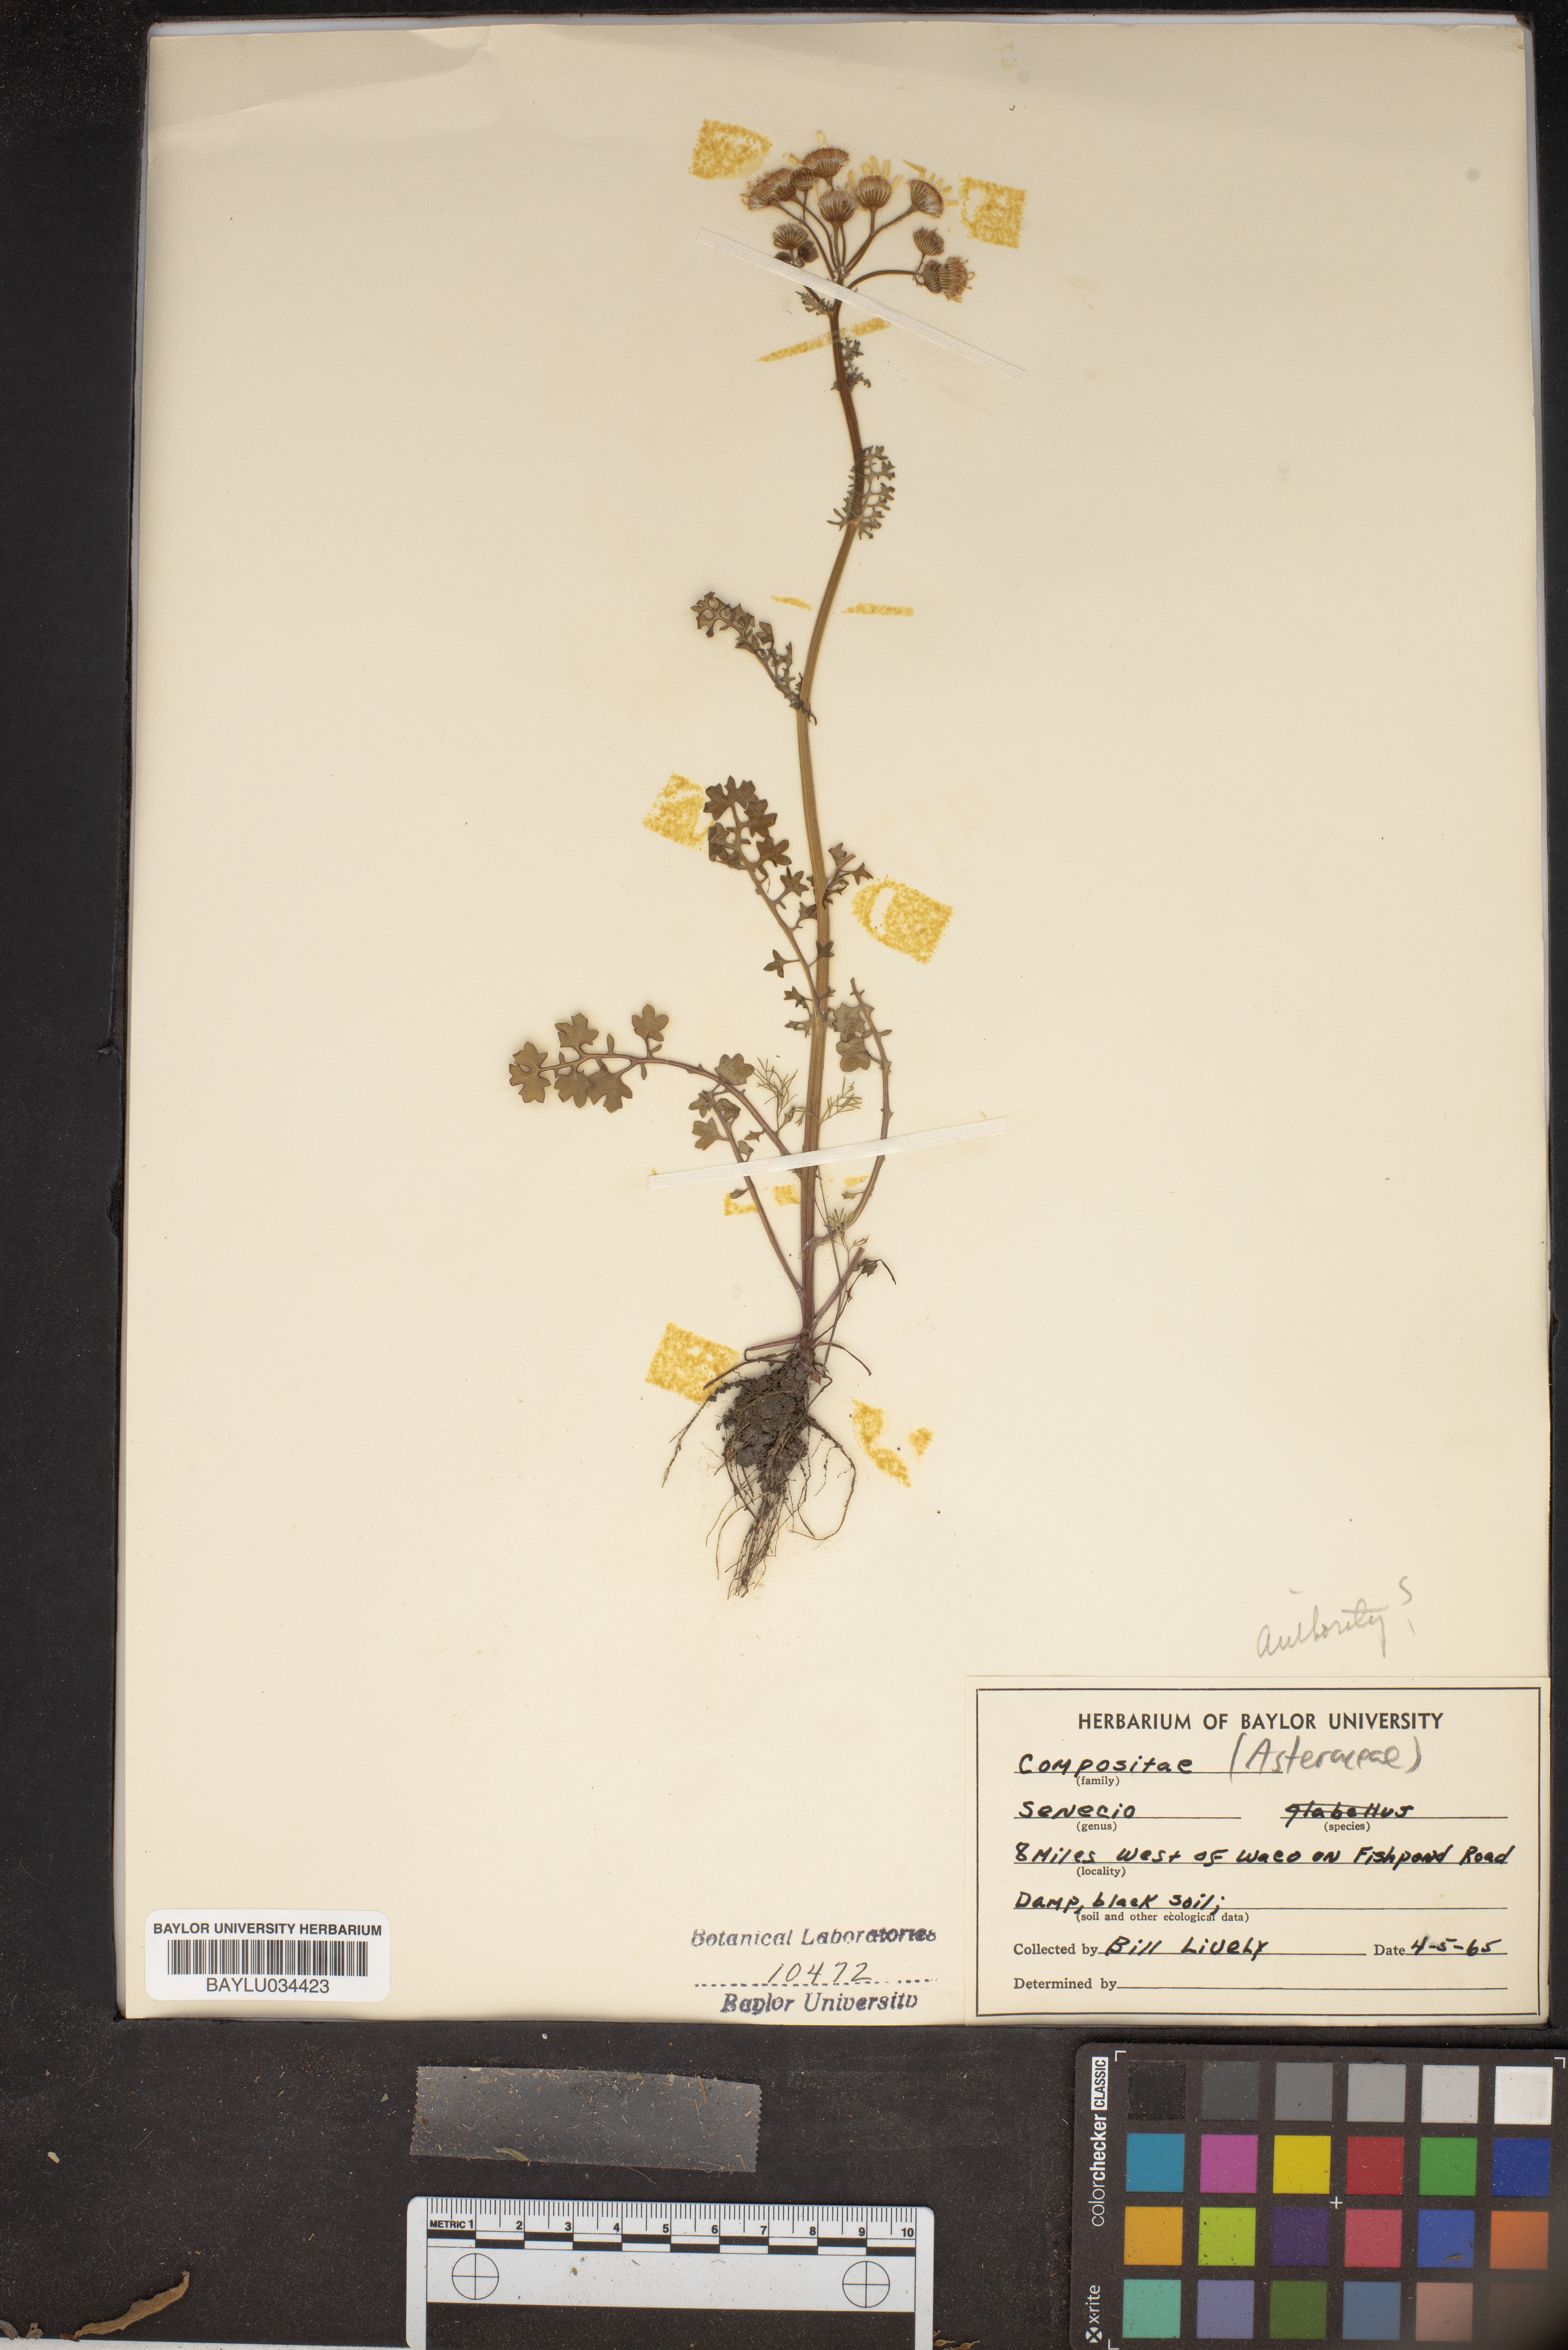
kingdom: Plantae
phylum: Tracheophyta
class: Magnoliopsida
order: Asterales
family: Asteraceae
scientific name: Asteraceae
